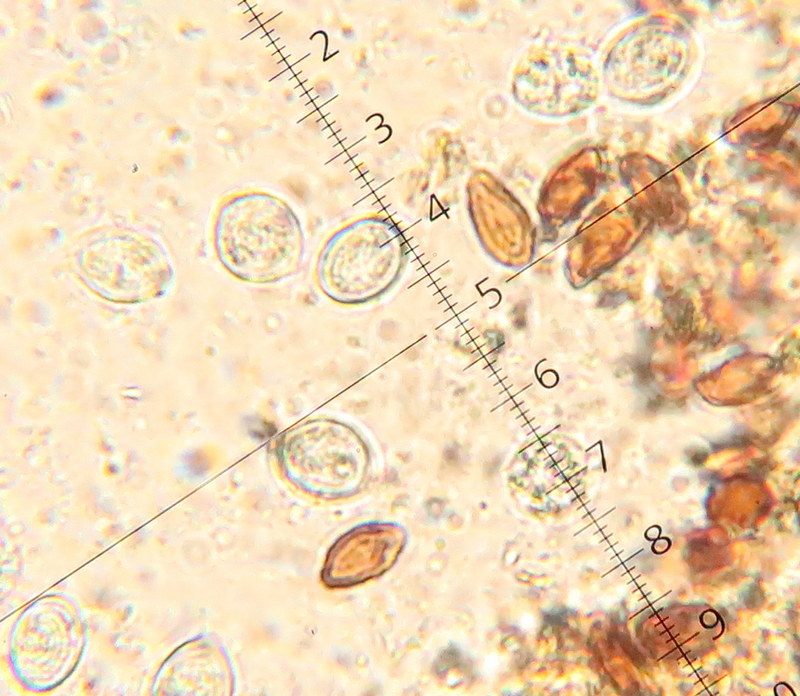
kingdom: Fungi
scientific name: Fungi
